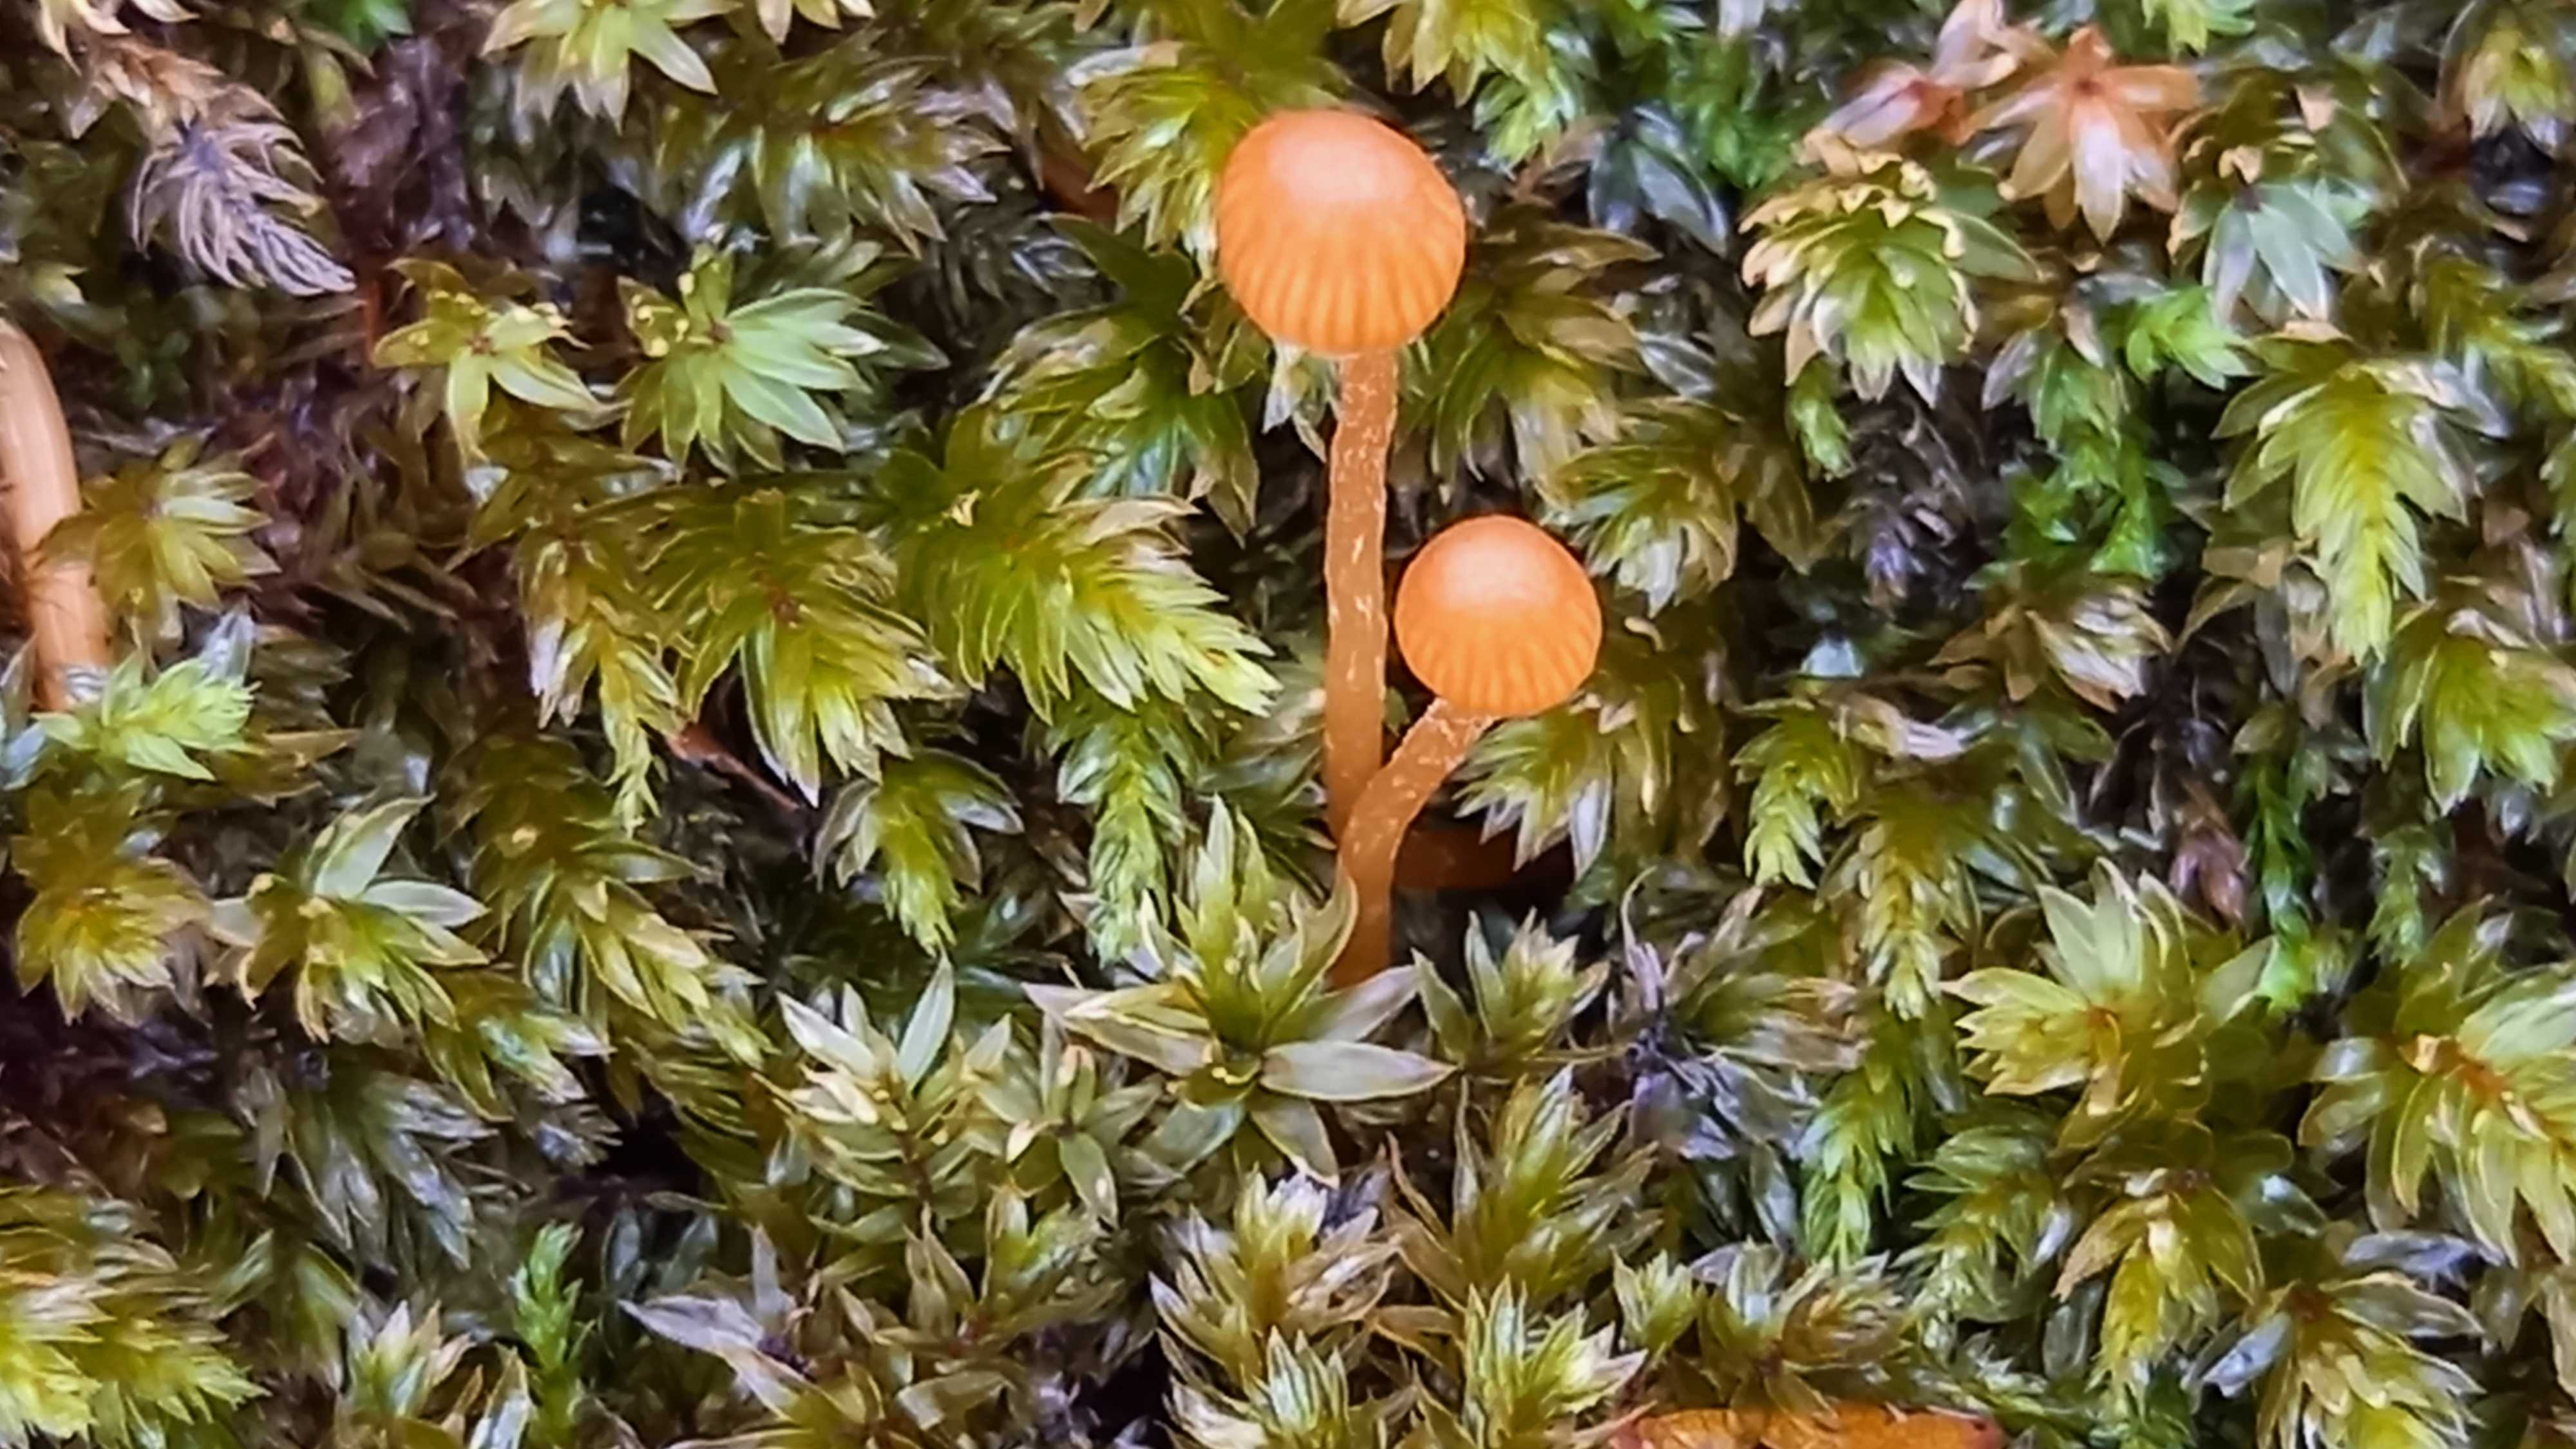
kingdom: Fungi
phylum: Basidiomycota
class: Agaricomycetes
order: Agaricales
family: Hymenogastraceae
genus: Galerina
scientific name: Galerina
